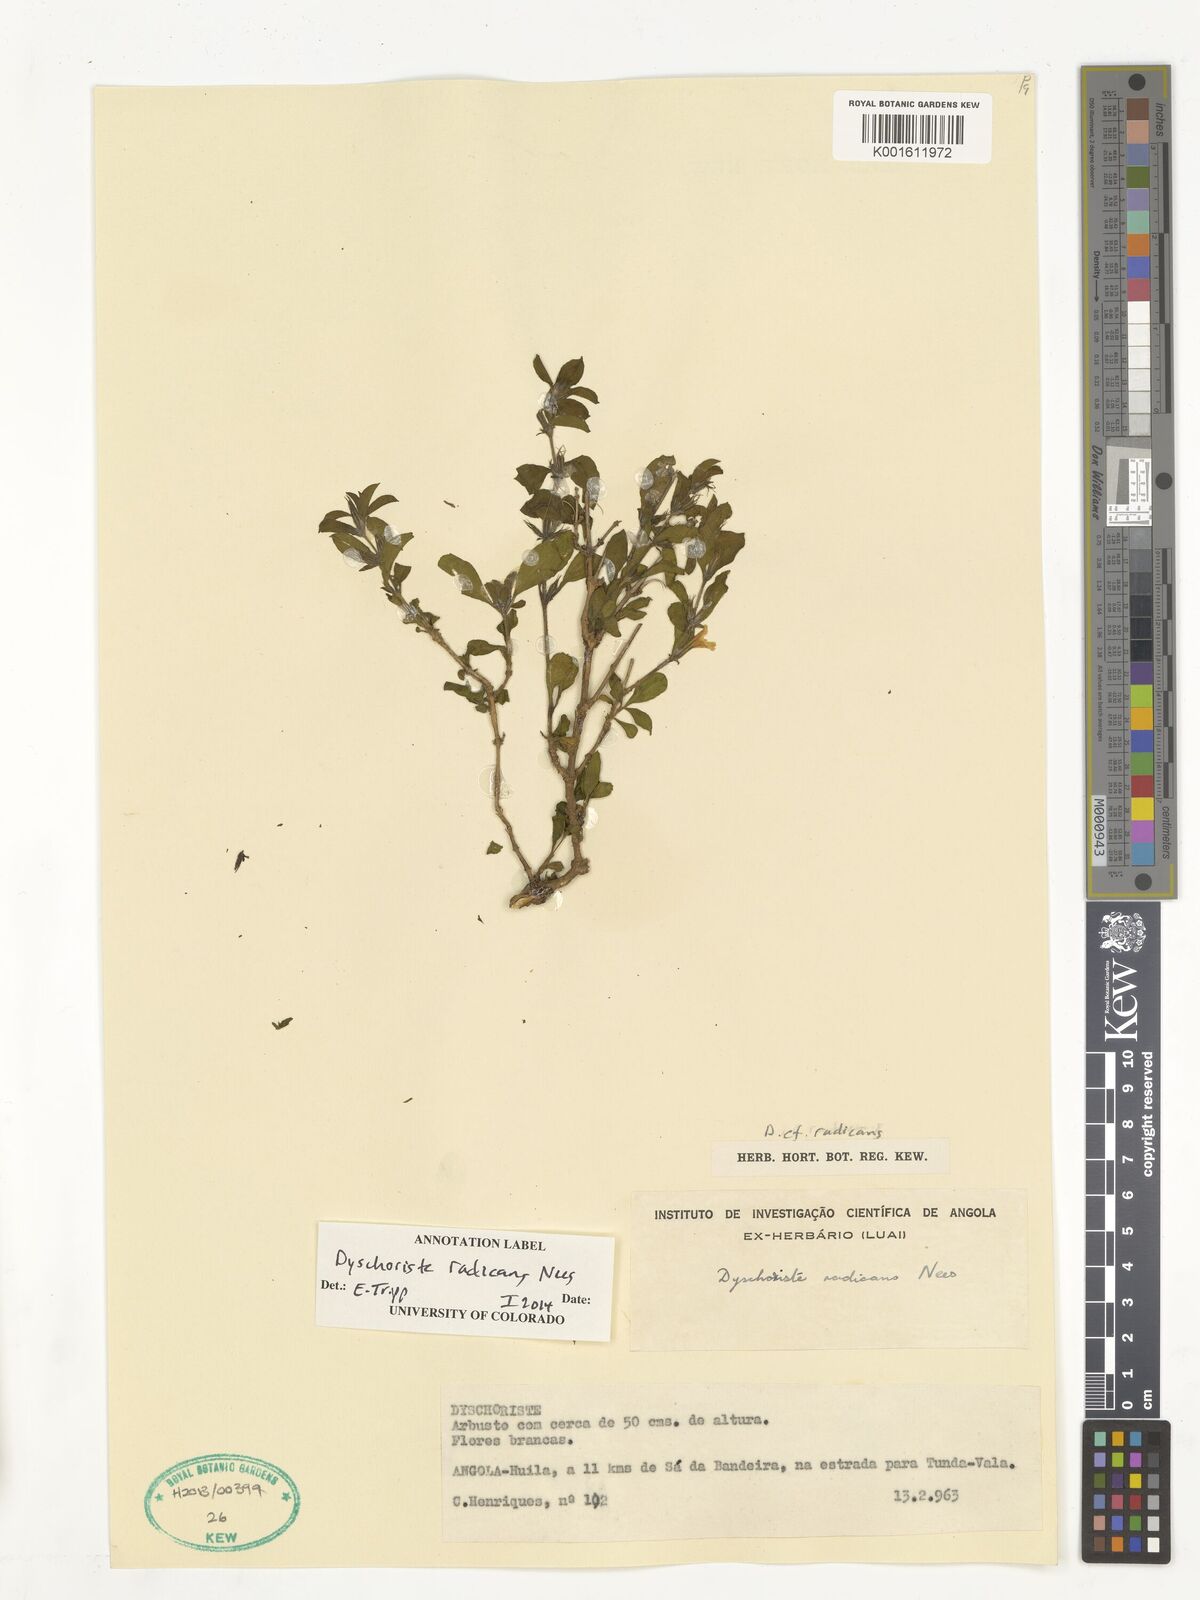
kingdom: Plantae
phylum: Tracheophyta
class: Magnoliopsida
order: Lamiales
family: Acanthaceae
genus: Dyschoriste
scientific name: Dyschoriste radicans
